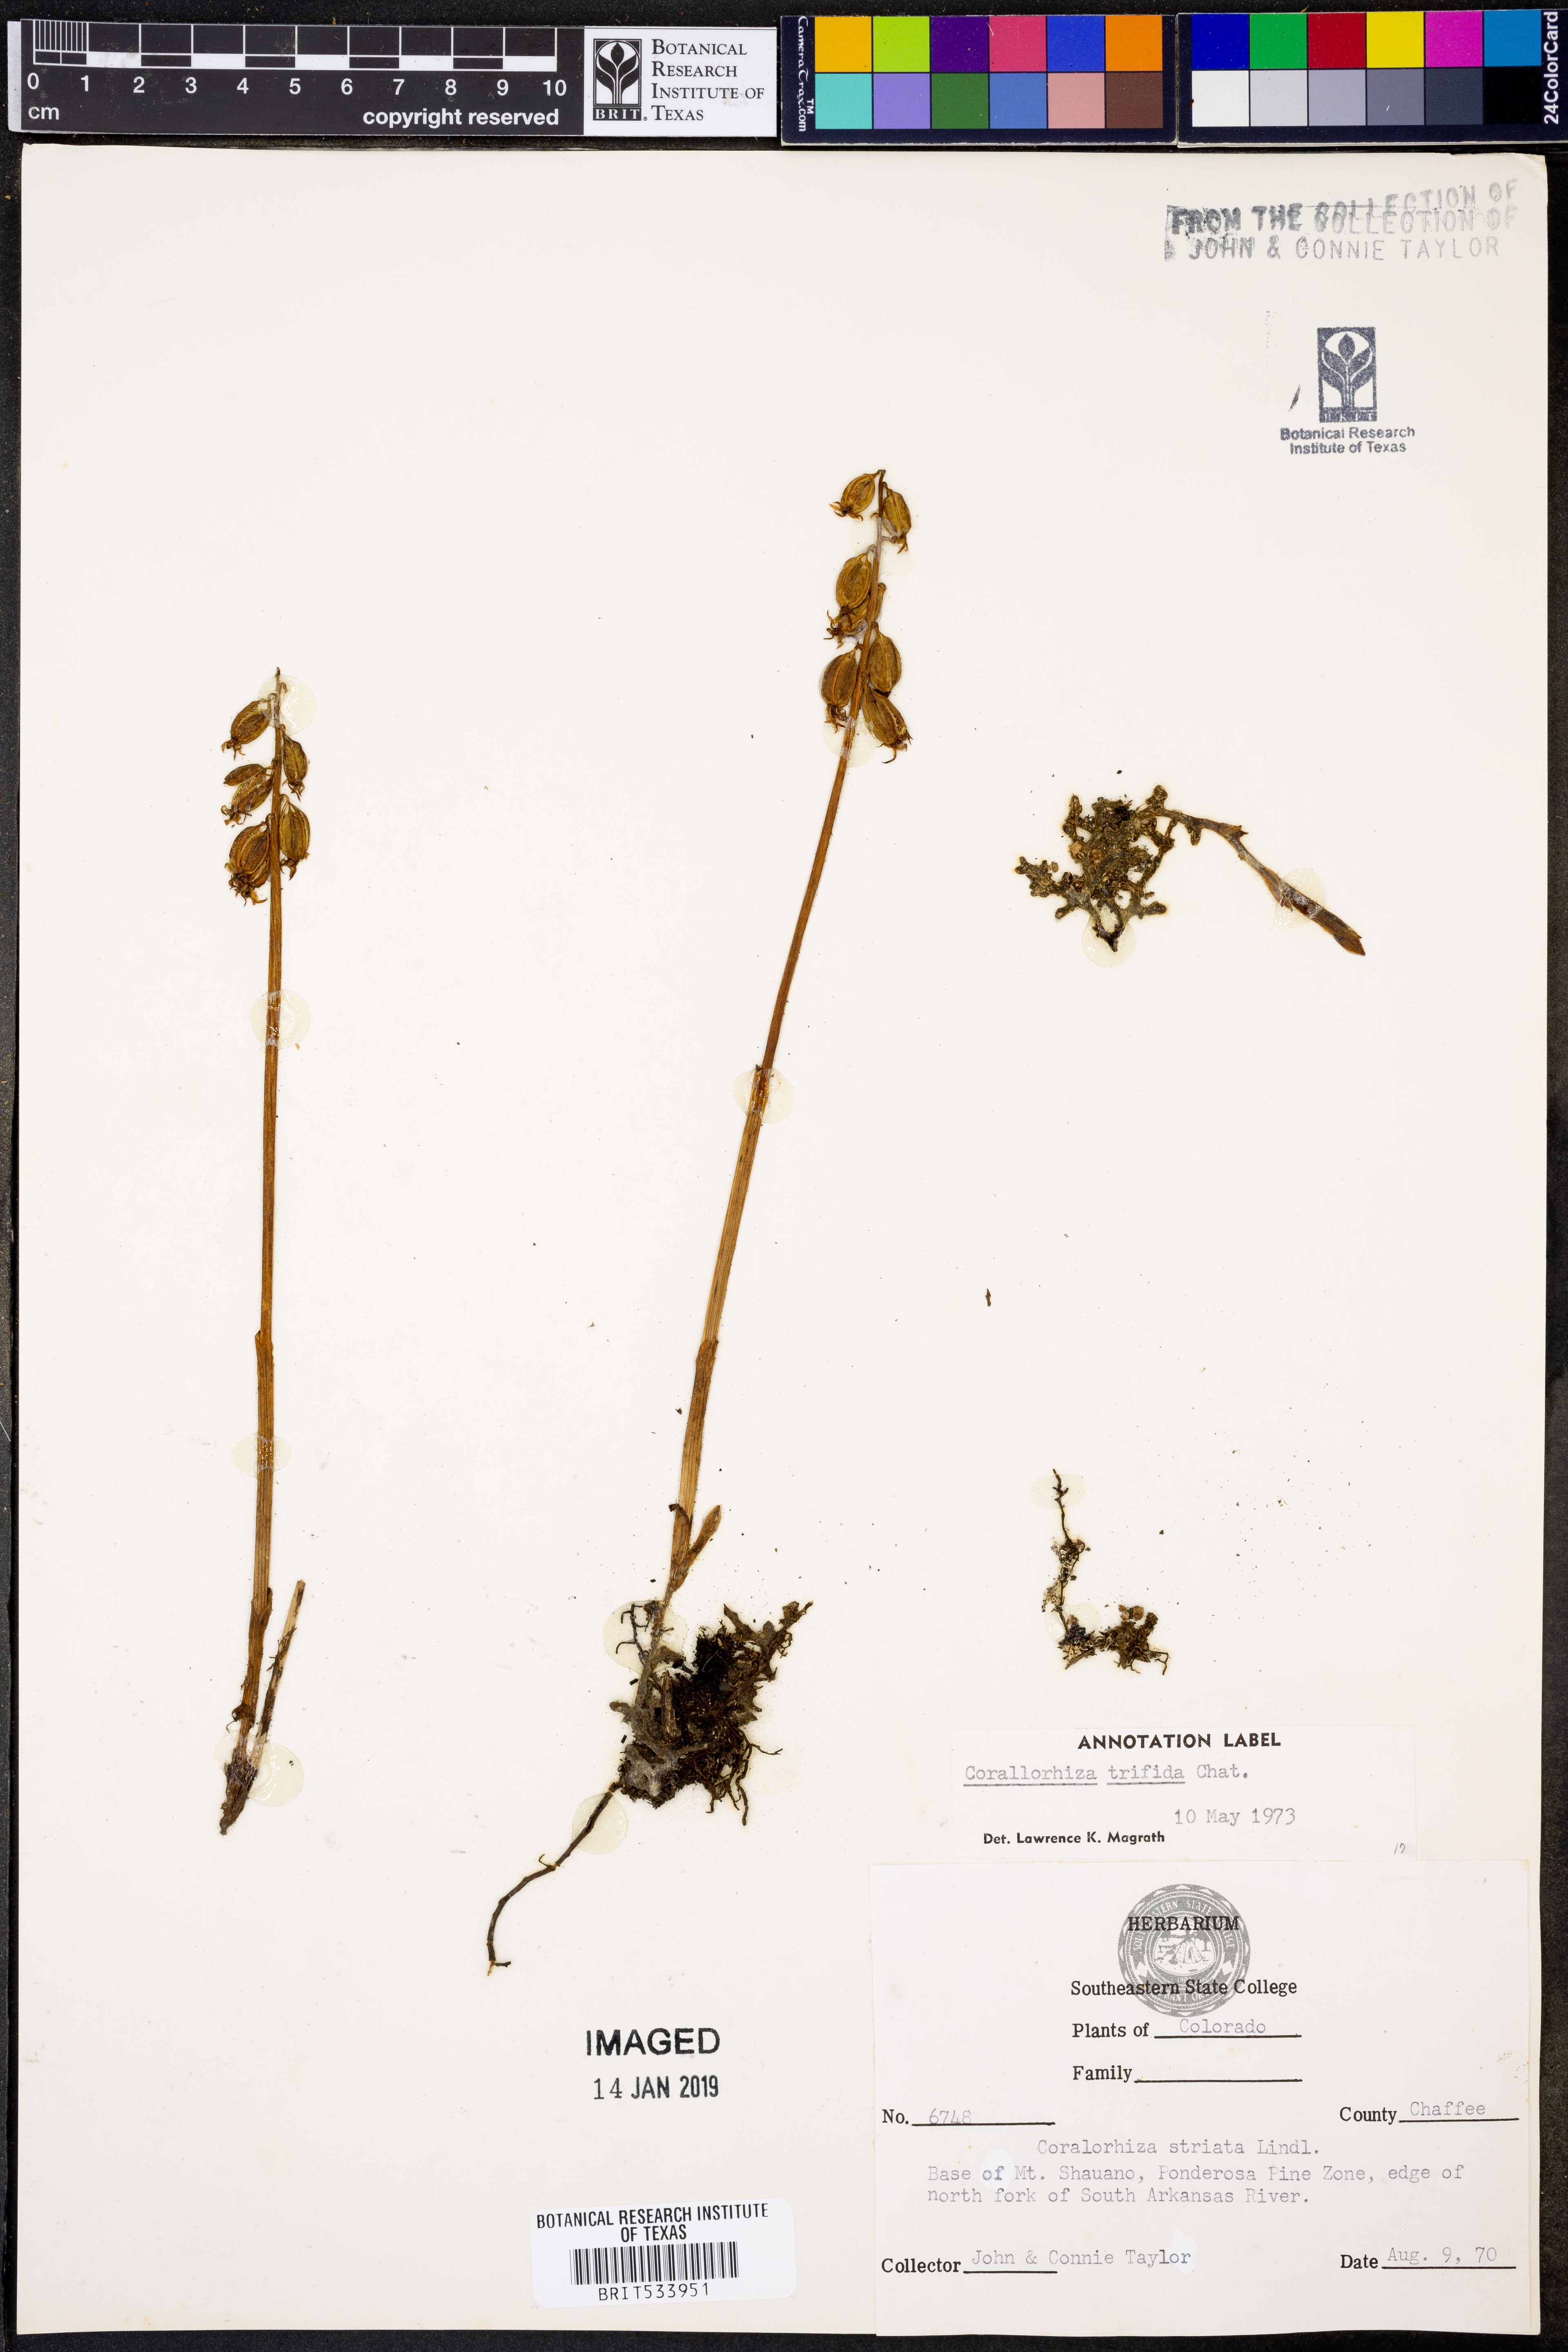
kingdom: Plantae
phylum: Tracheophyta
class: Liliopsida
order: Asparagales
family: Orchidaceae
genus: Corallorhiza
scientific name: Corallorhiza trifida
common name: Yellow coralroot
